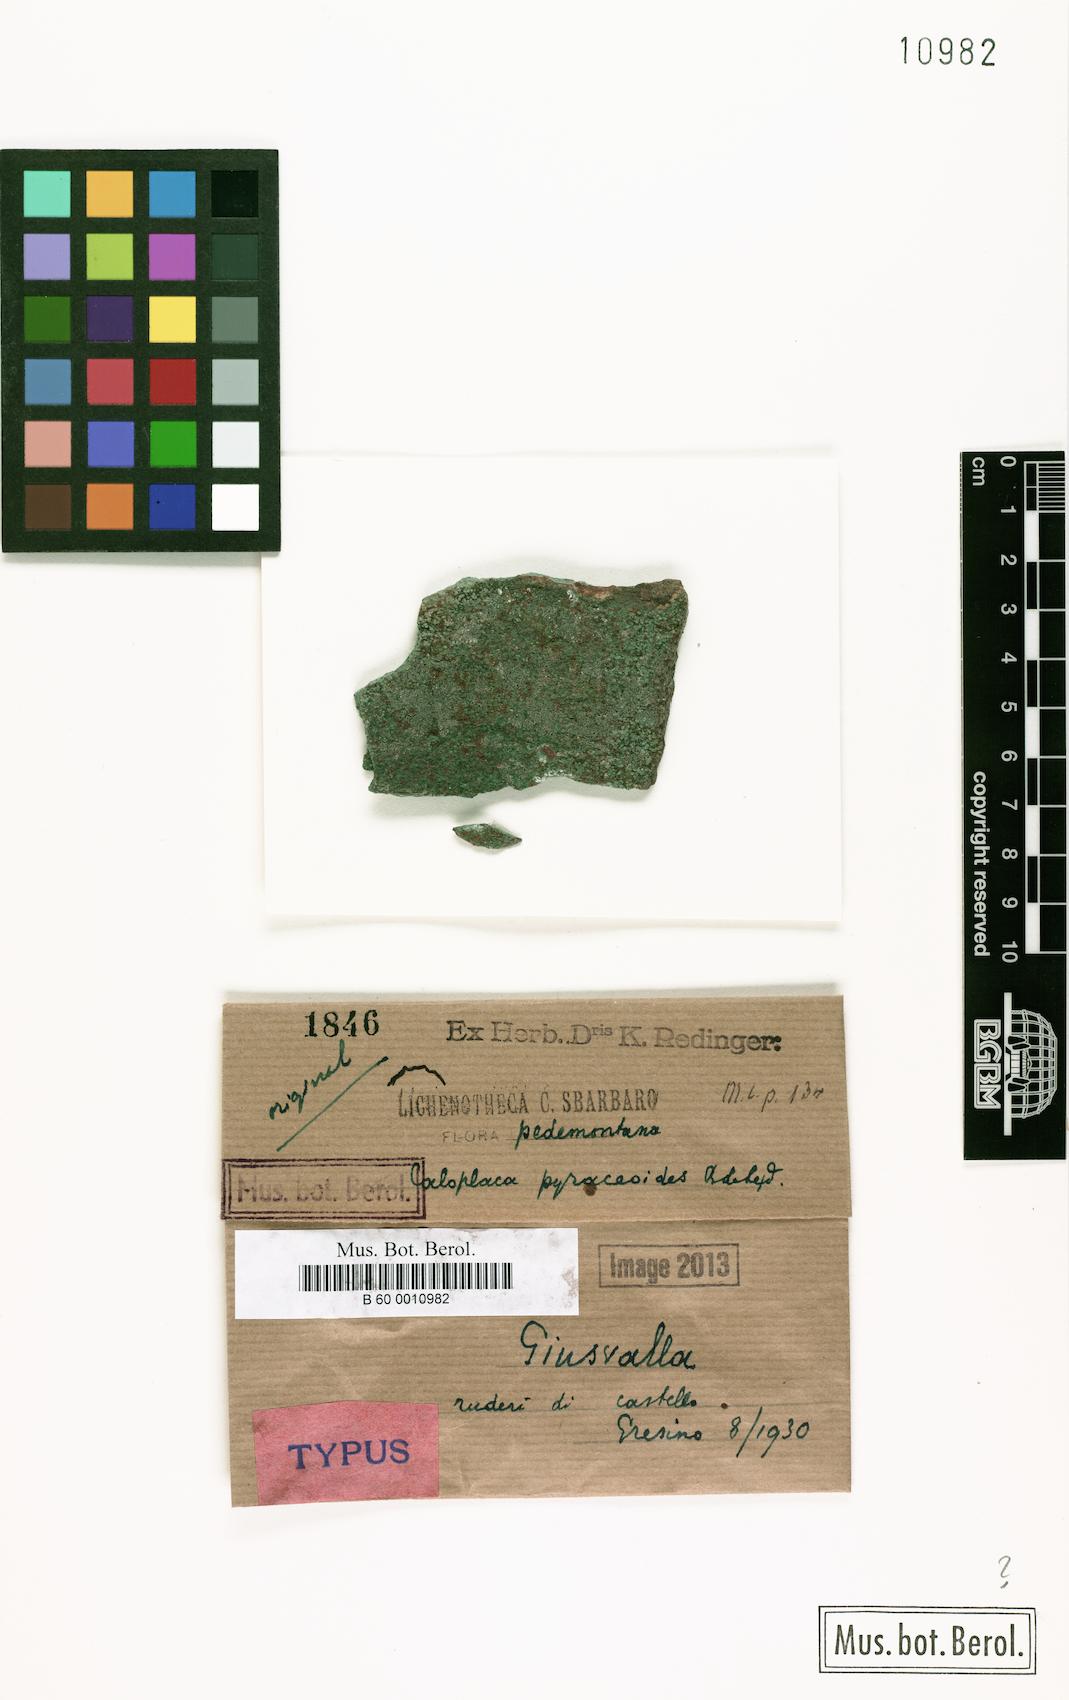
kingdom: Fungi
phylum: Ascomycota
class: Lecanoromycetes
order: Teloschistales
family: Teloschistaceae
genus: Caloplaca
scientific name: Caloplaca
